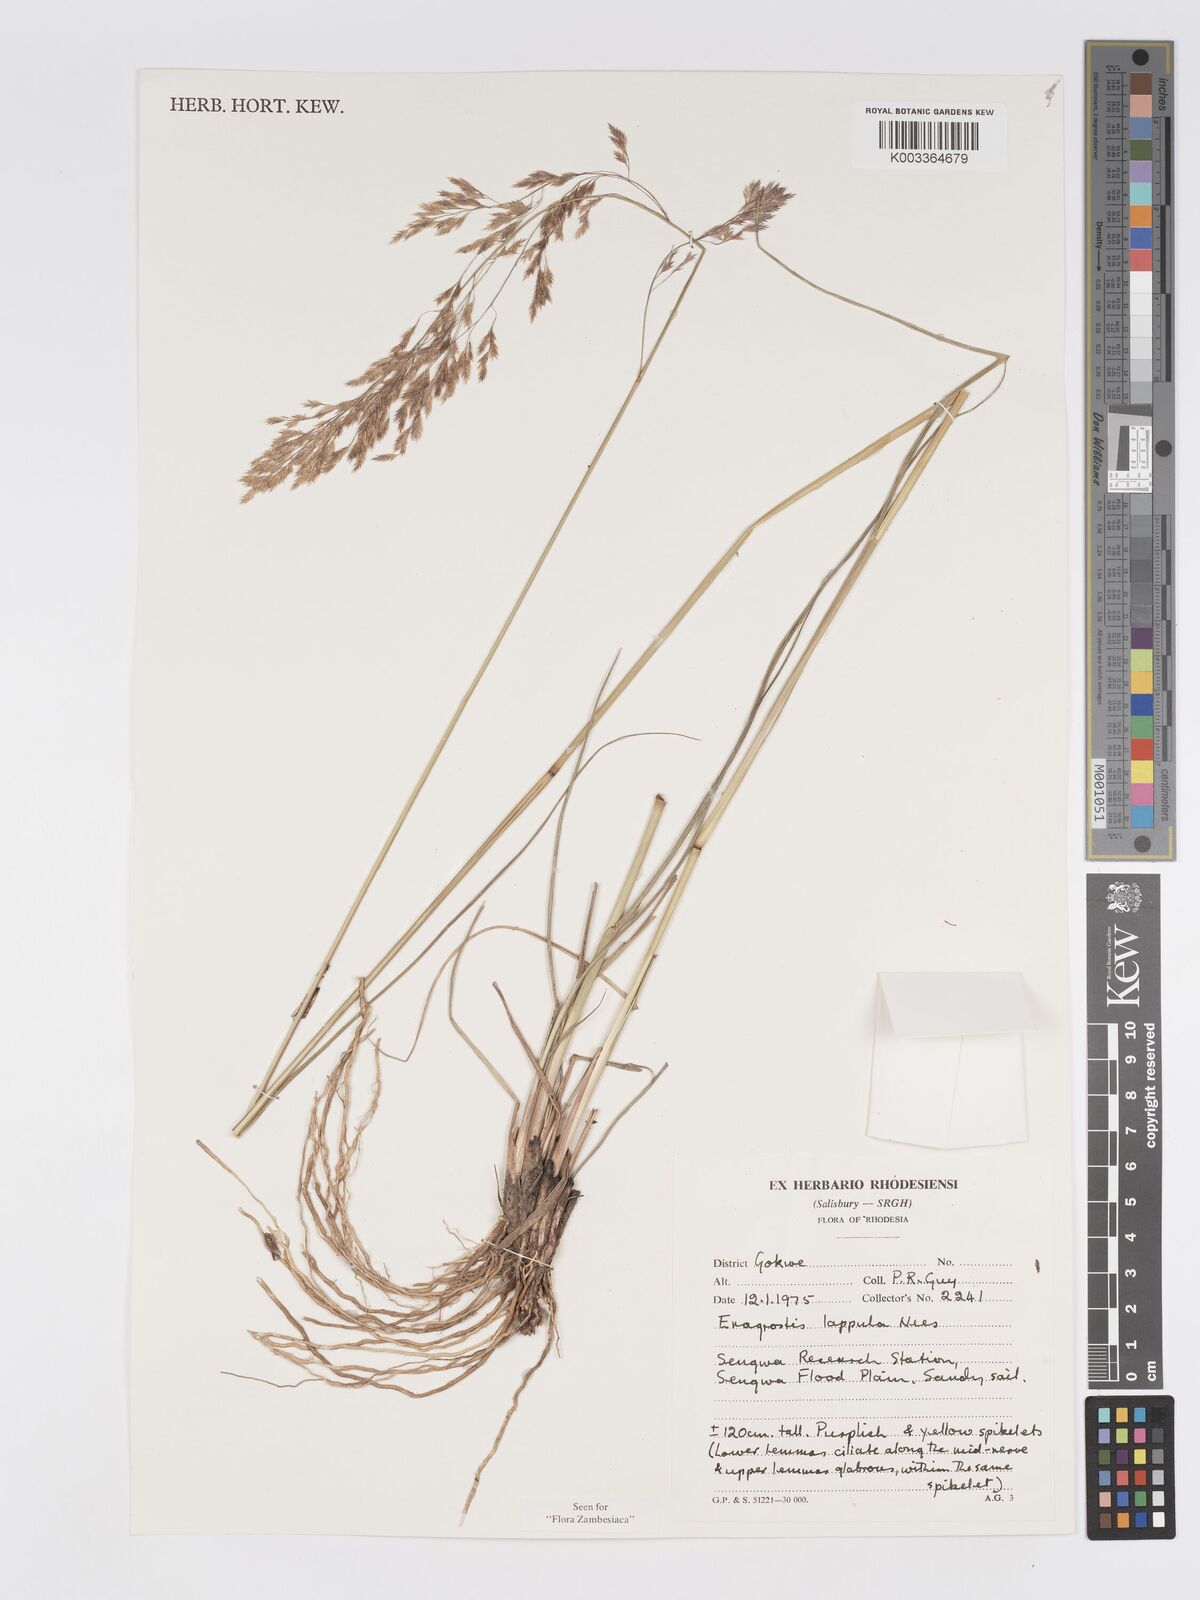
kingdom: Plantae
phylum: Tracheophyta
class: Liliopsida
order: Poales
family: Poaceae
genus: Eragrostis
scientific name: Eragrostis lappula
